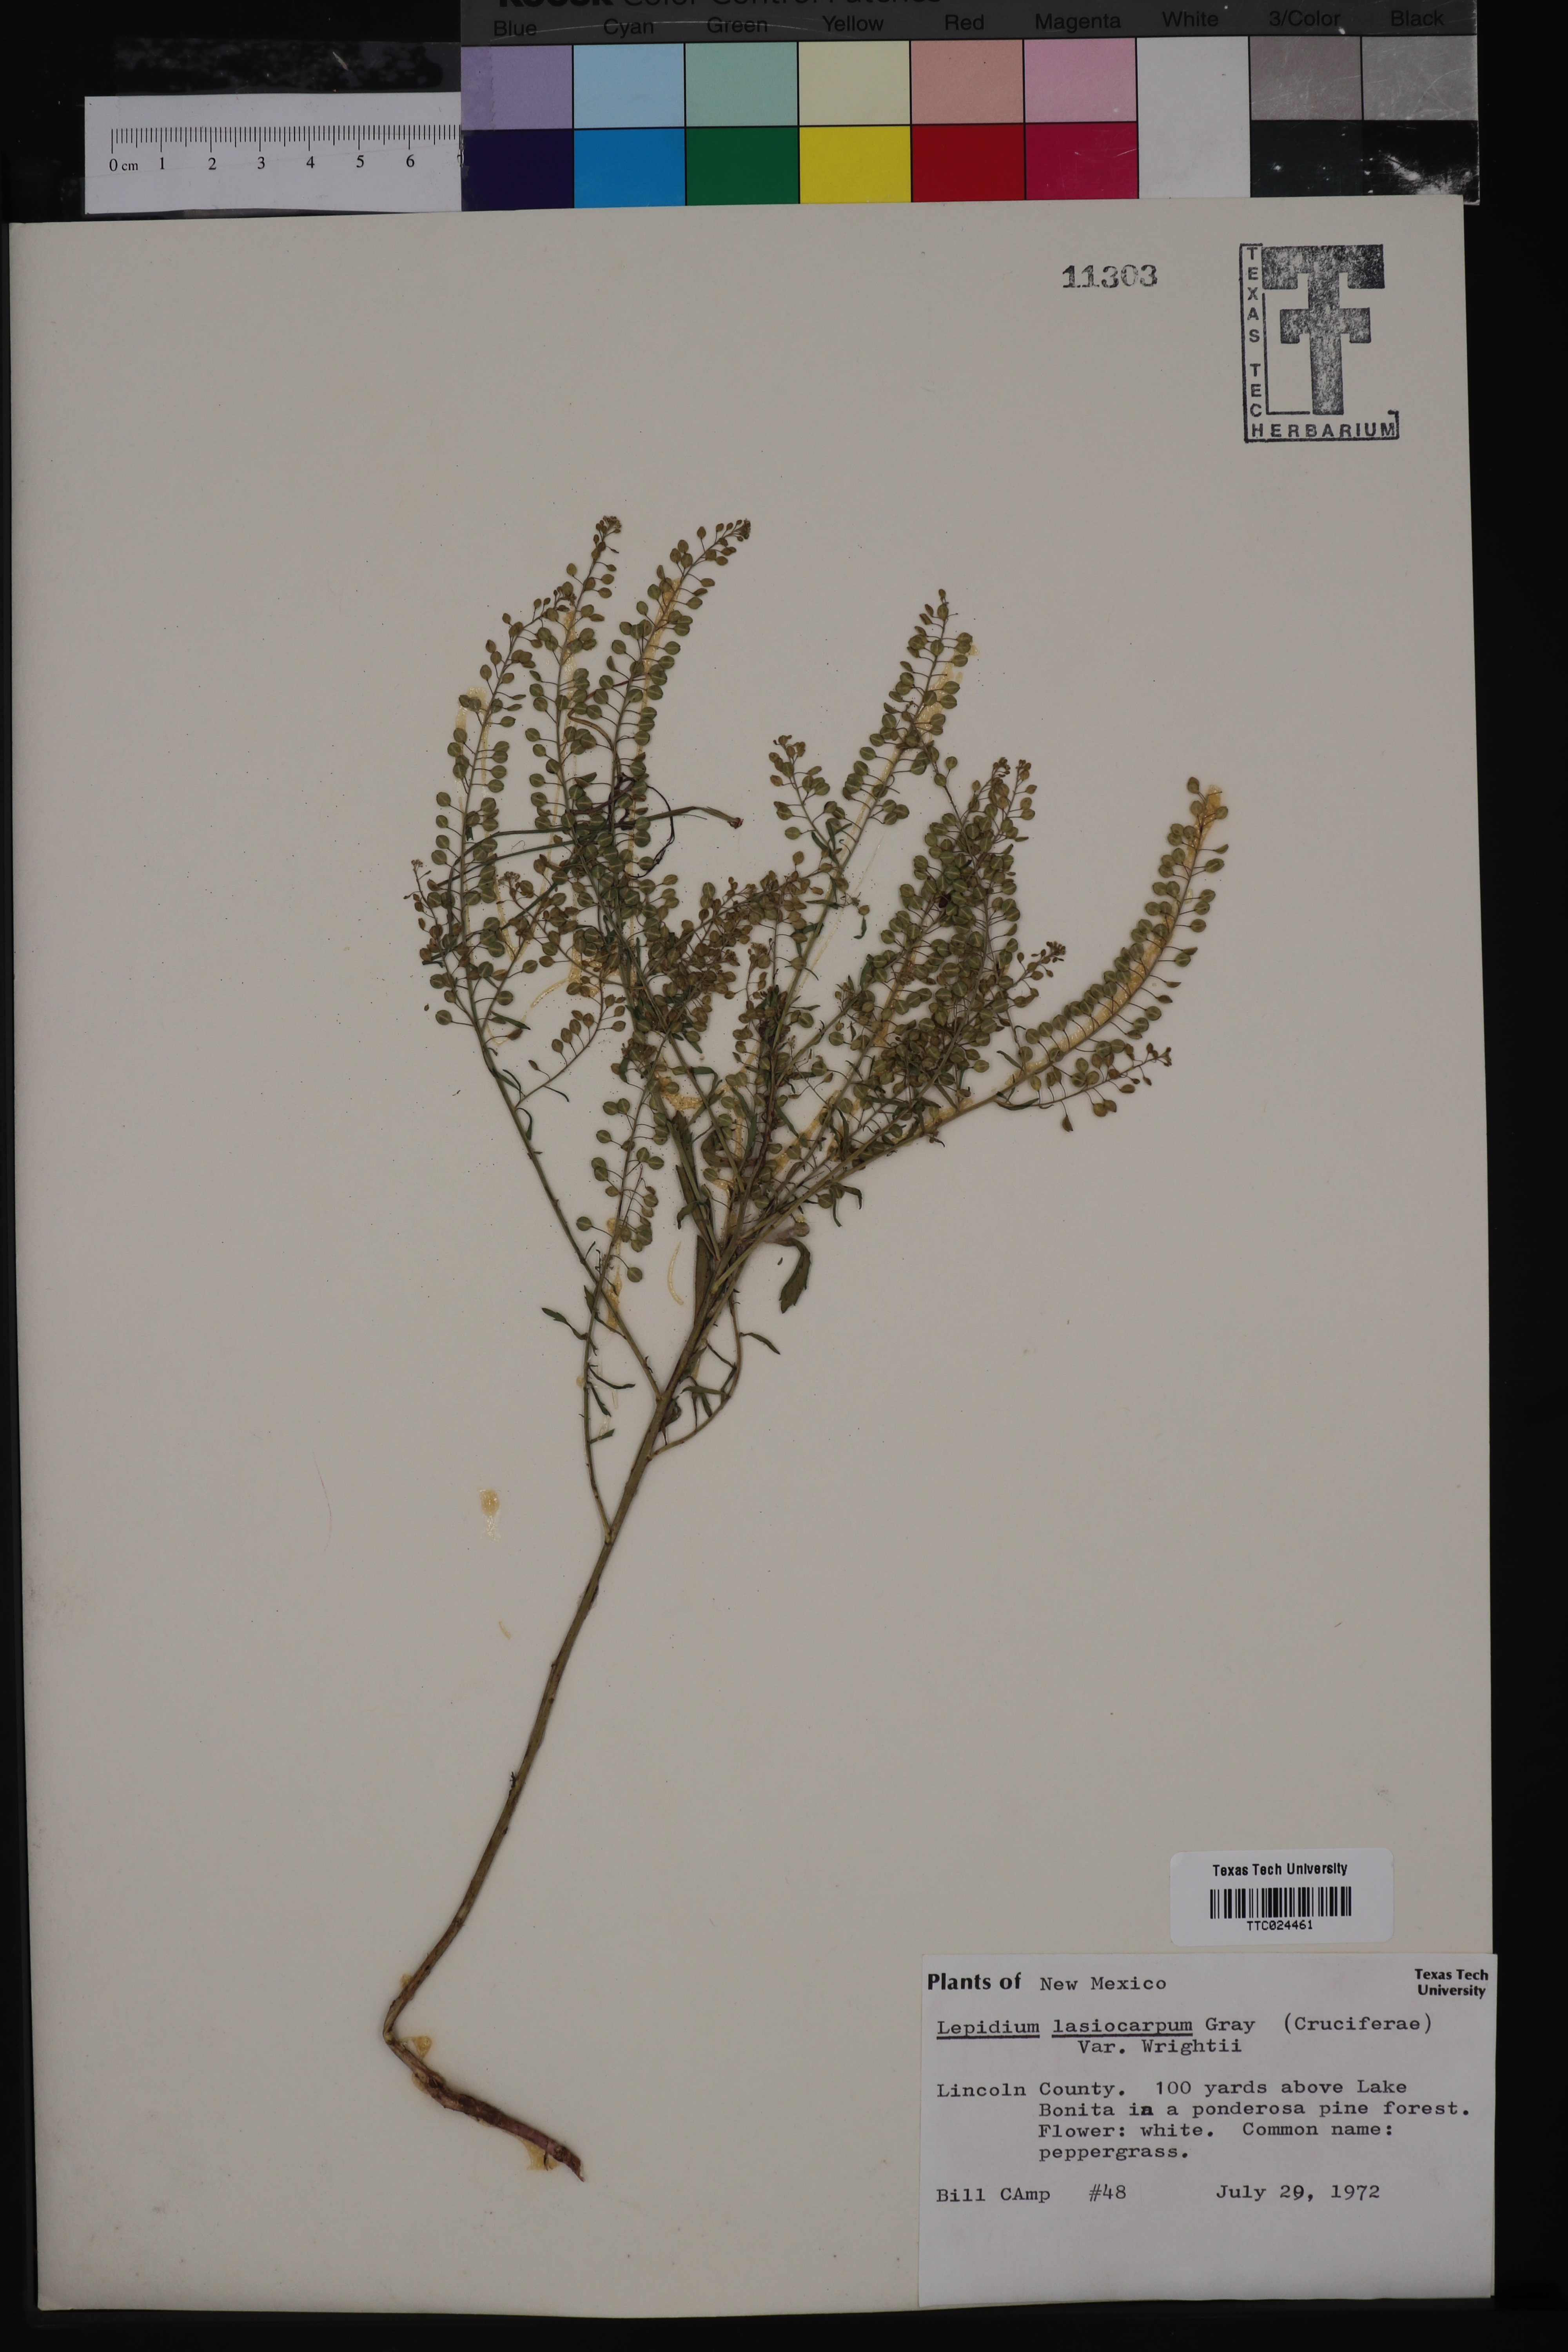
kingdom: Plantae
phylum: Tracheophyta
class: Magnoliopsida
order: Brassicales
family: Brassicaceae
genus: Lepidium
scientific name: Lepidium lasiocarpum
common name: Hairy-pod pepperwort
